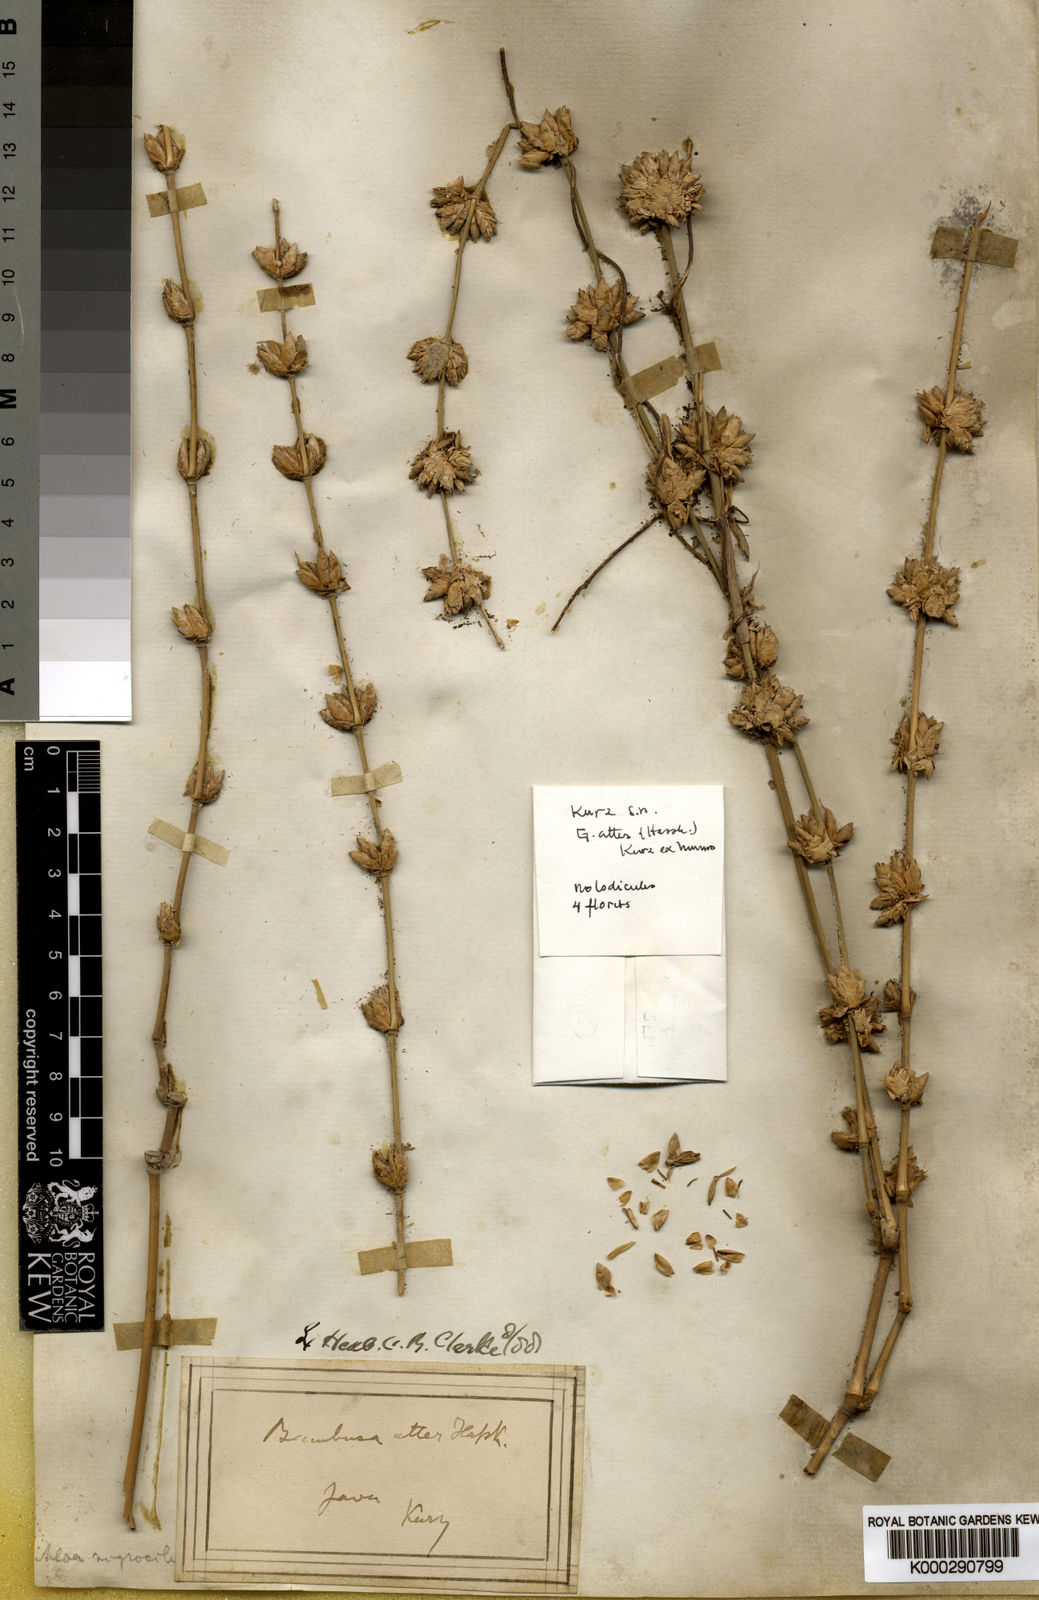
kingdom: Plantae
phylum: Tracheophyta
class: Liliopsida
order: Poales
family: Poaceae
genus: Gigantochloa
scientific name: Gigantochloa atter
